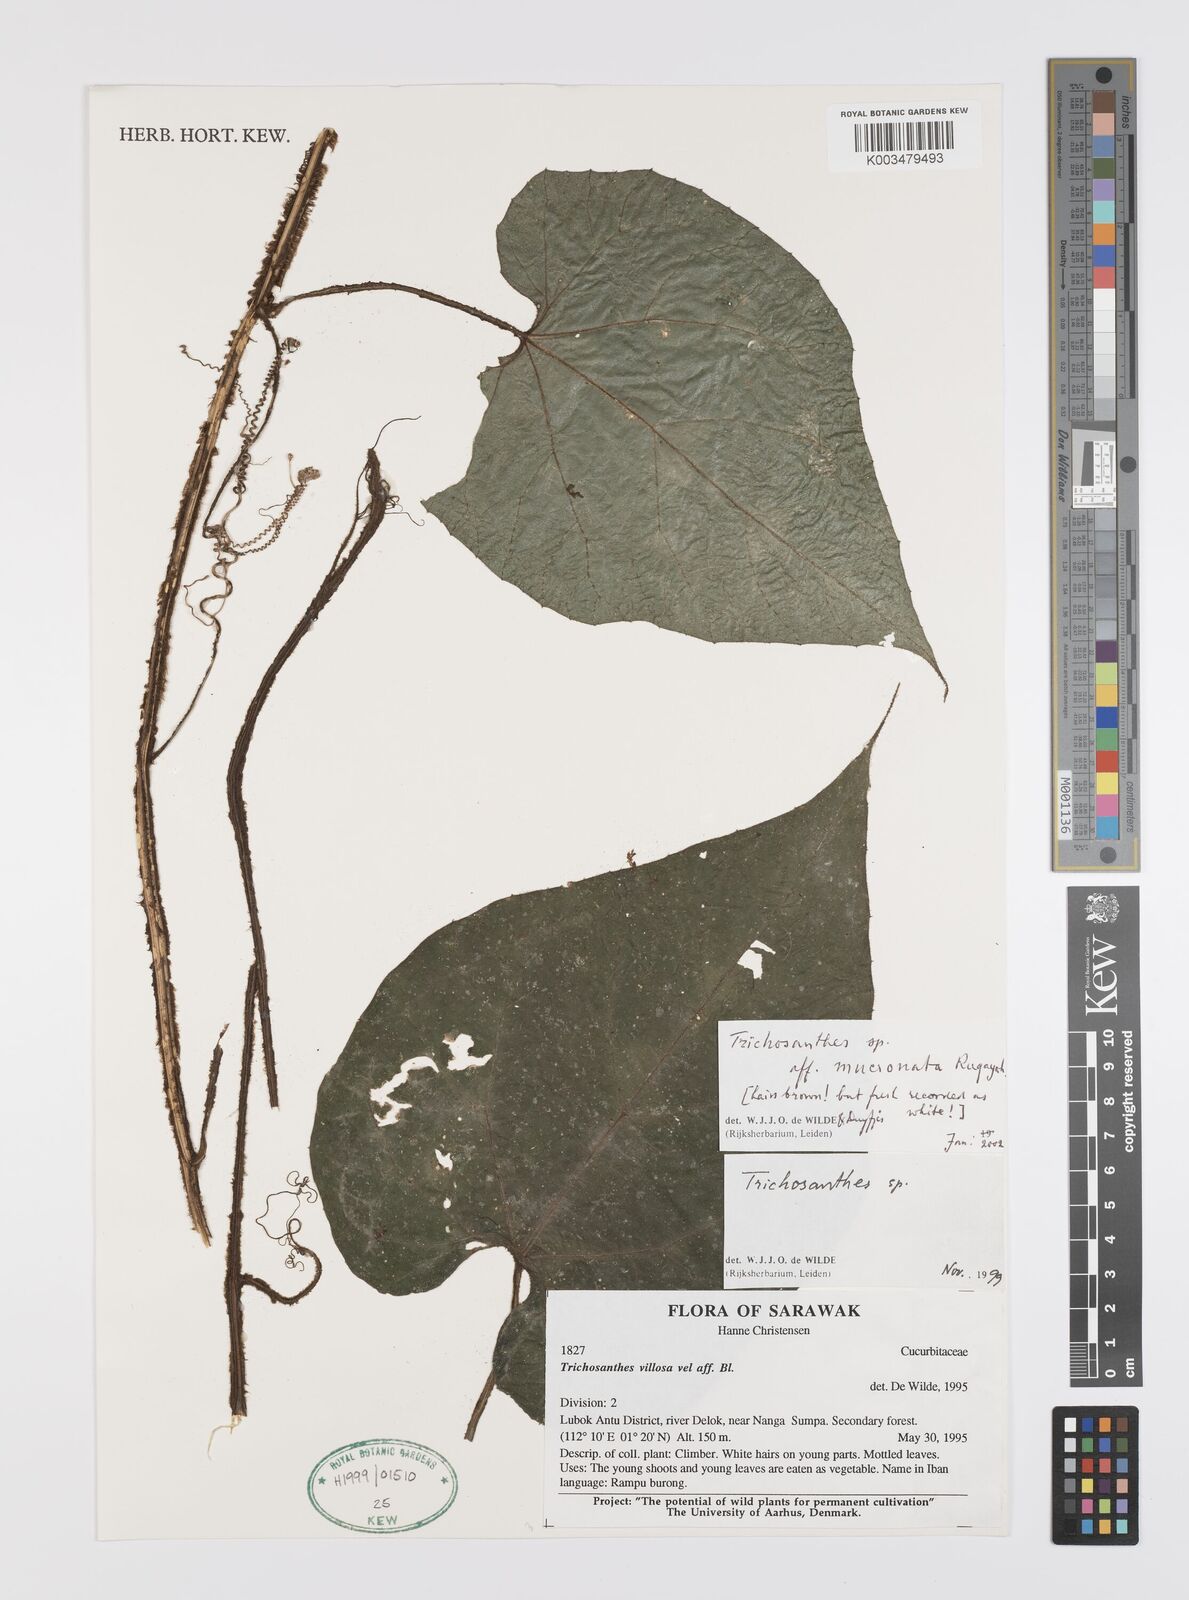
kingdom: Plantae
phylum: Tracheophyta
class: Magnoliopsida
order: Cucurbitales
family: Cucurbitaceae
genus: Trichosanthes
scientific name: Trichosanthes mucronata
